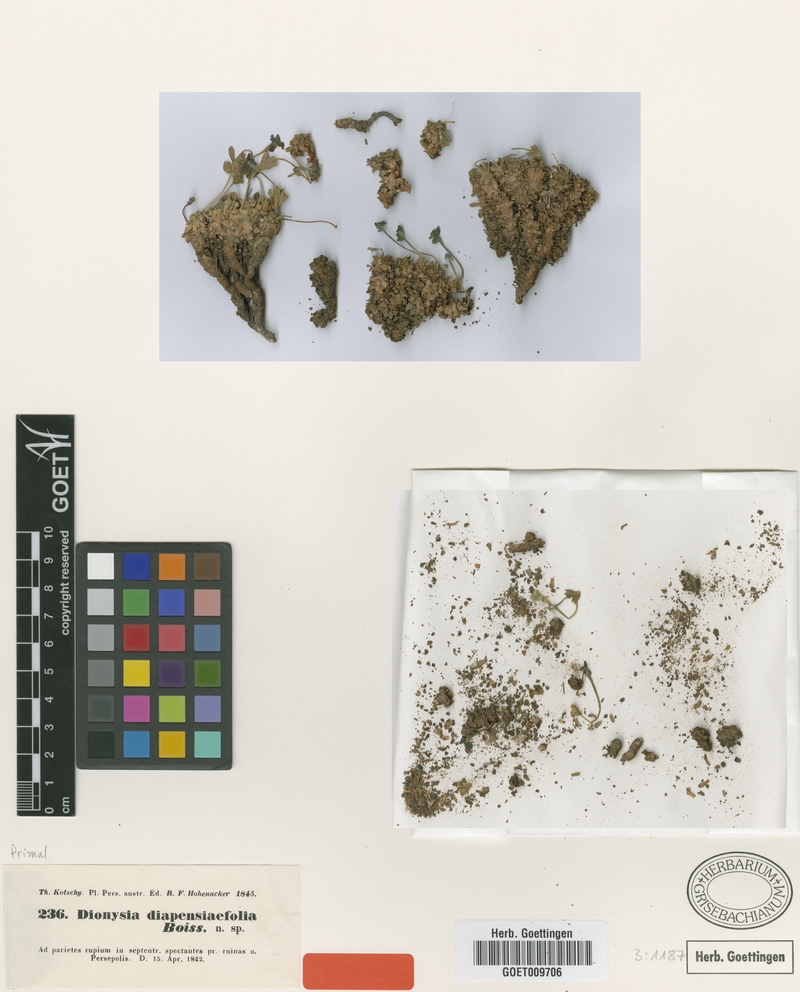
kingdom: Plantae
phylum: Tracheophyta
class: Magnoliopsida
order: Ericales
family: Primulaceae
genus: Dionysia
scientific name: Dionysia diapensiifolia
